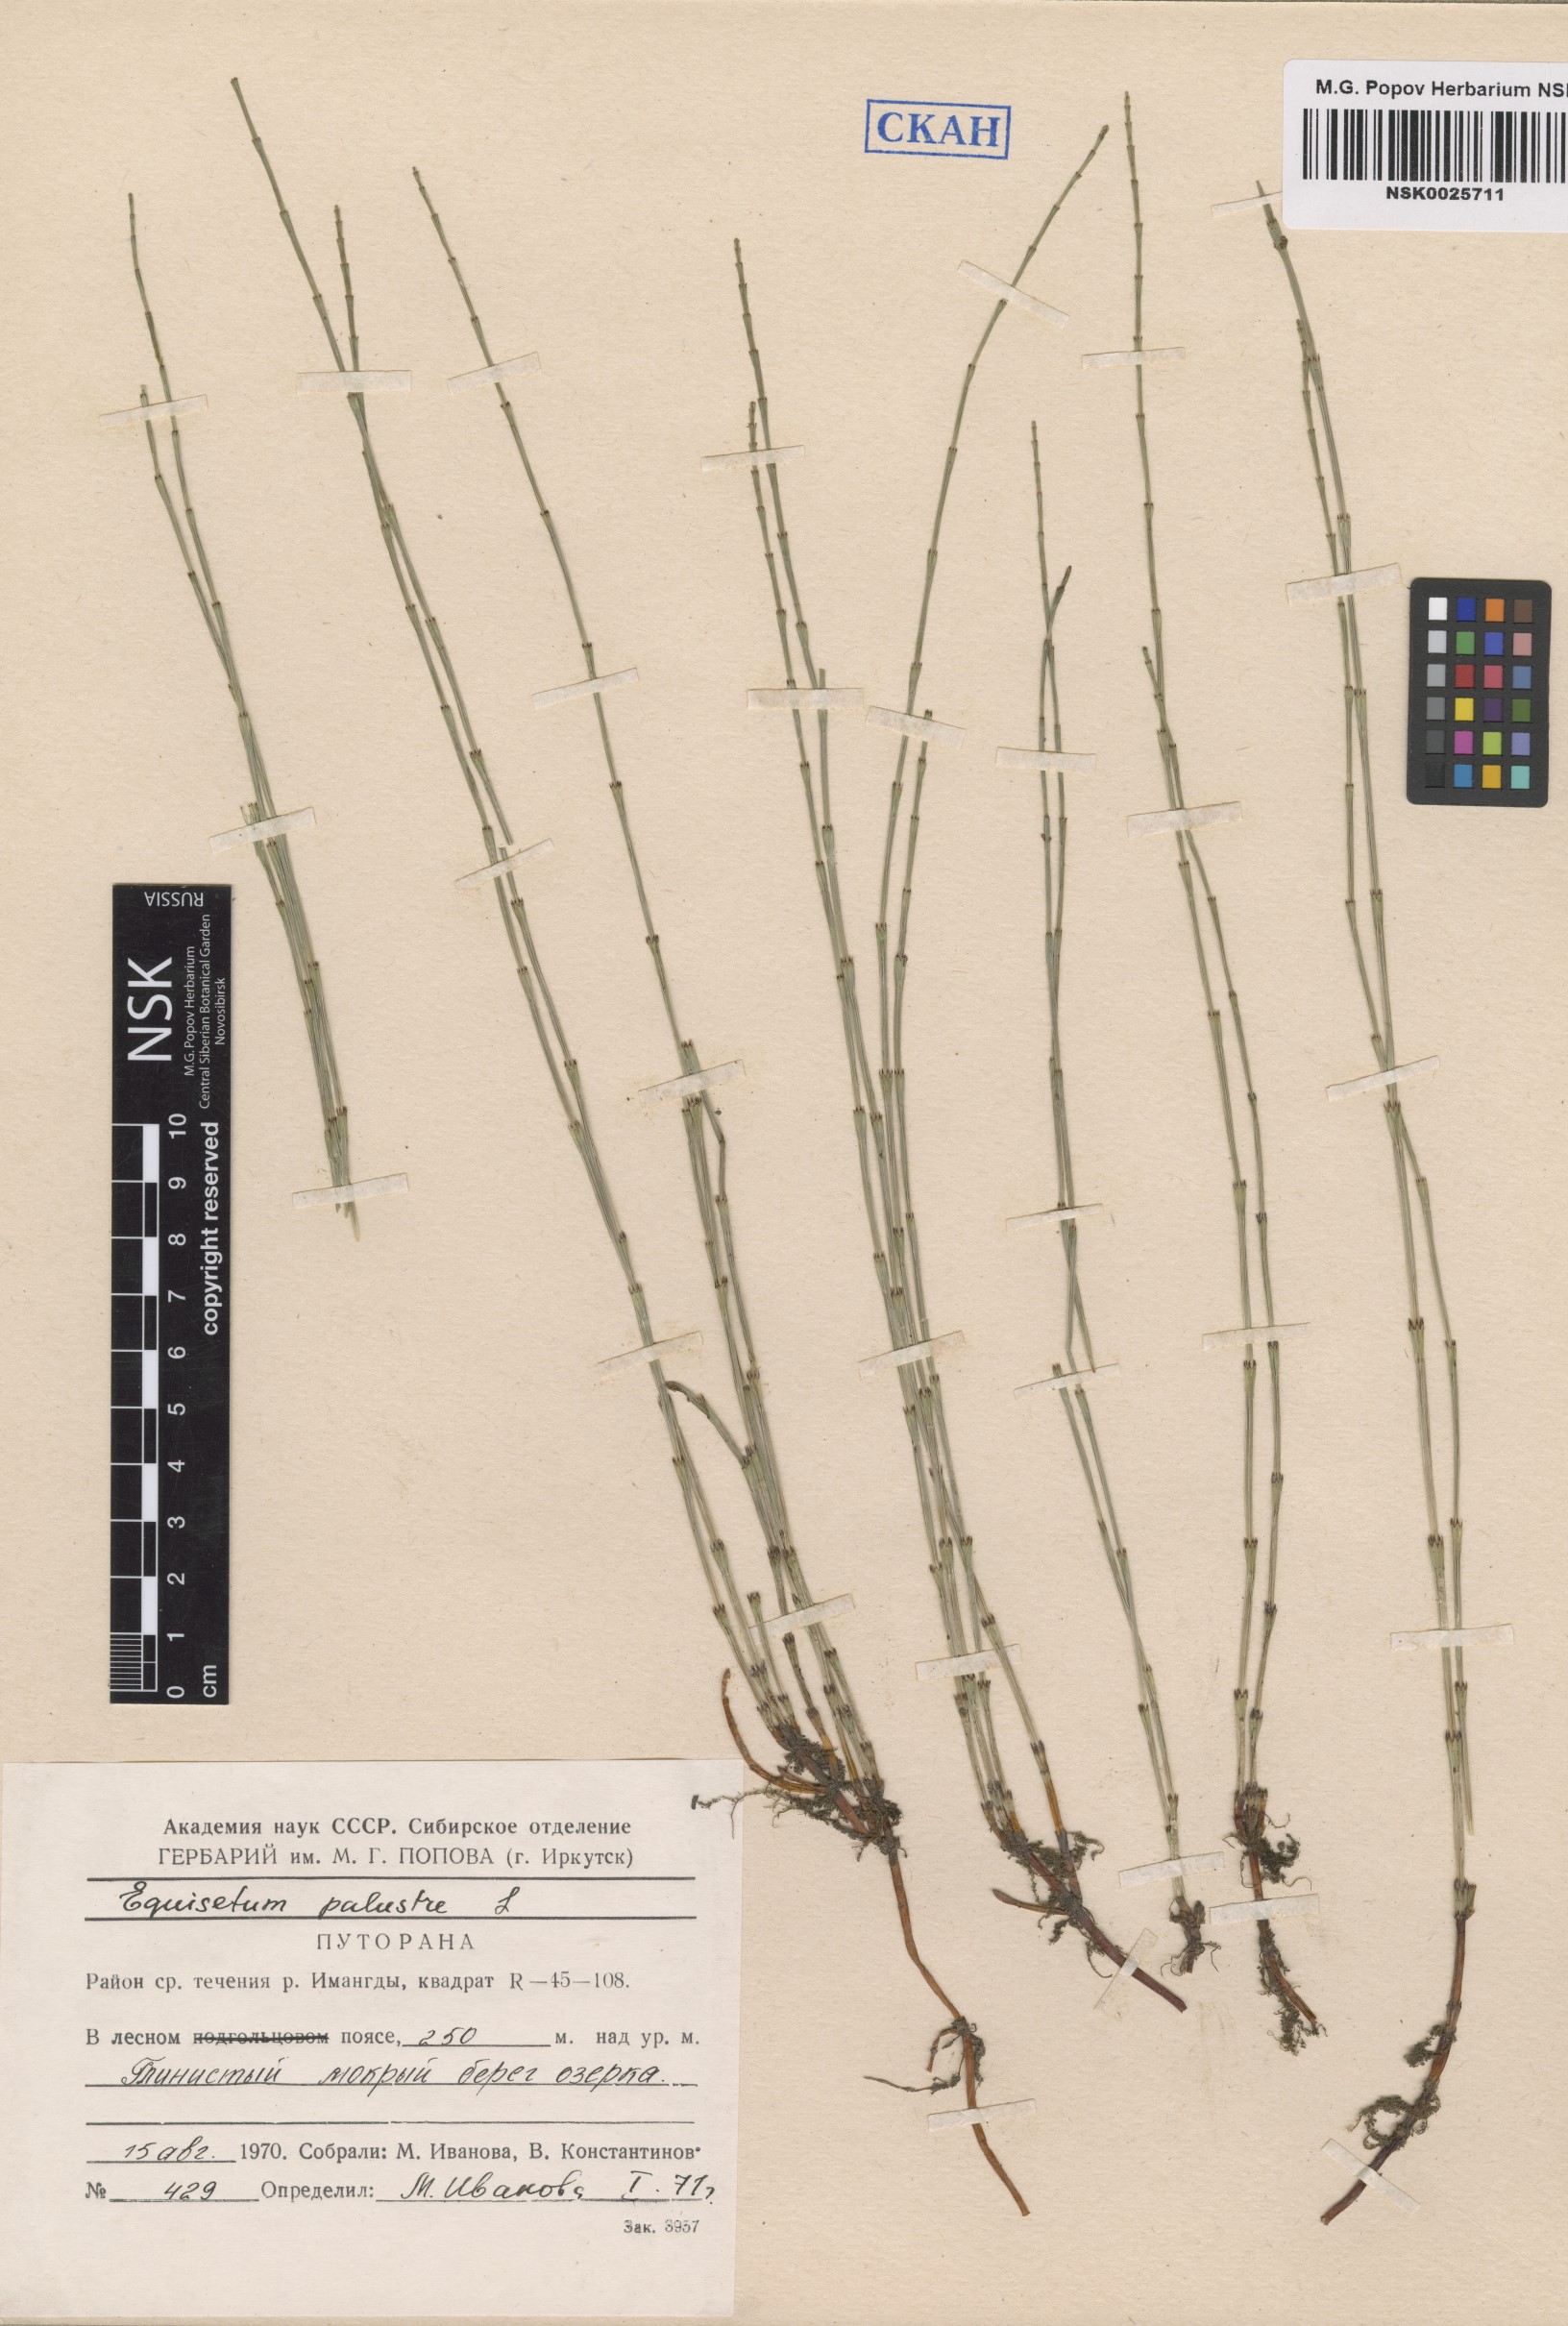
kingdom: Plantae
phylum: Tracheophyta
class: Polypodiopsida
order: Equisetales
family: Equisetaceae
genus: Equisetum
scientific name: Equisetum palustre
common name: Marsh horsetail
